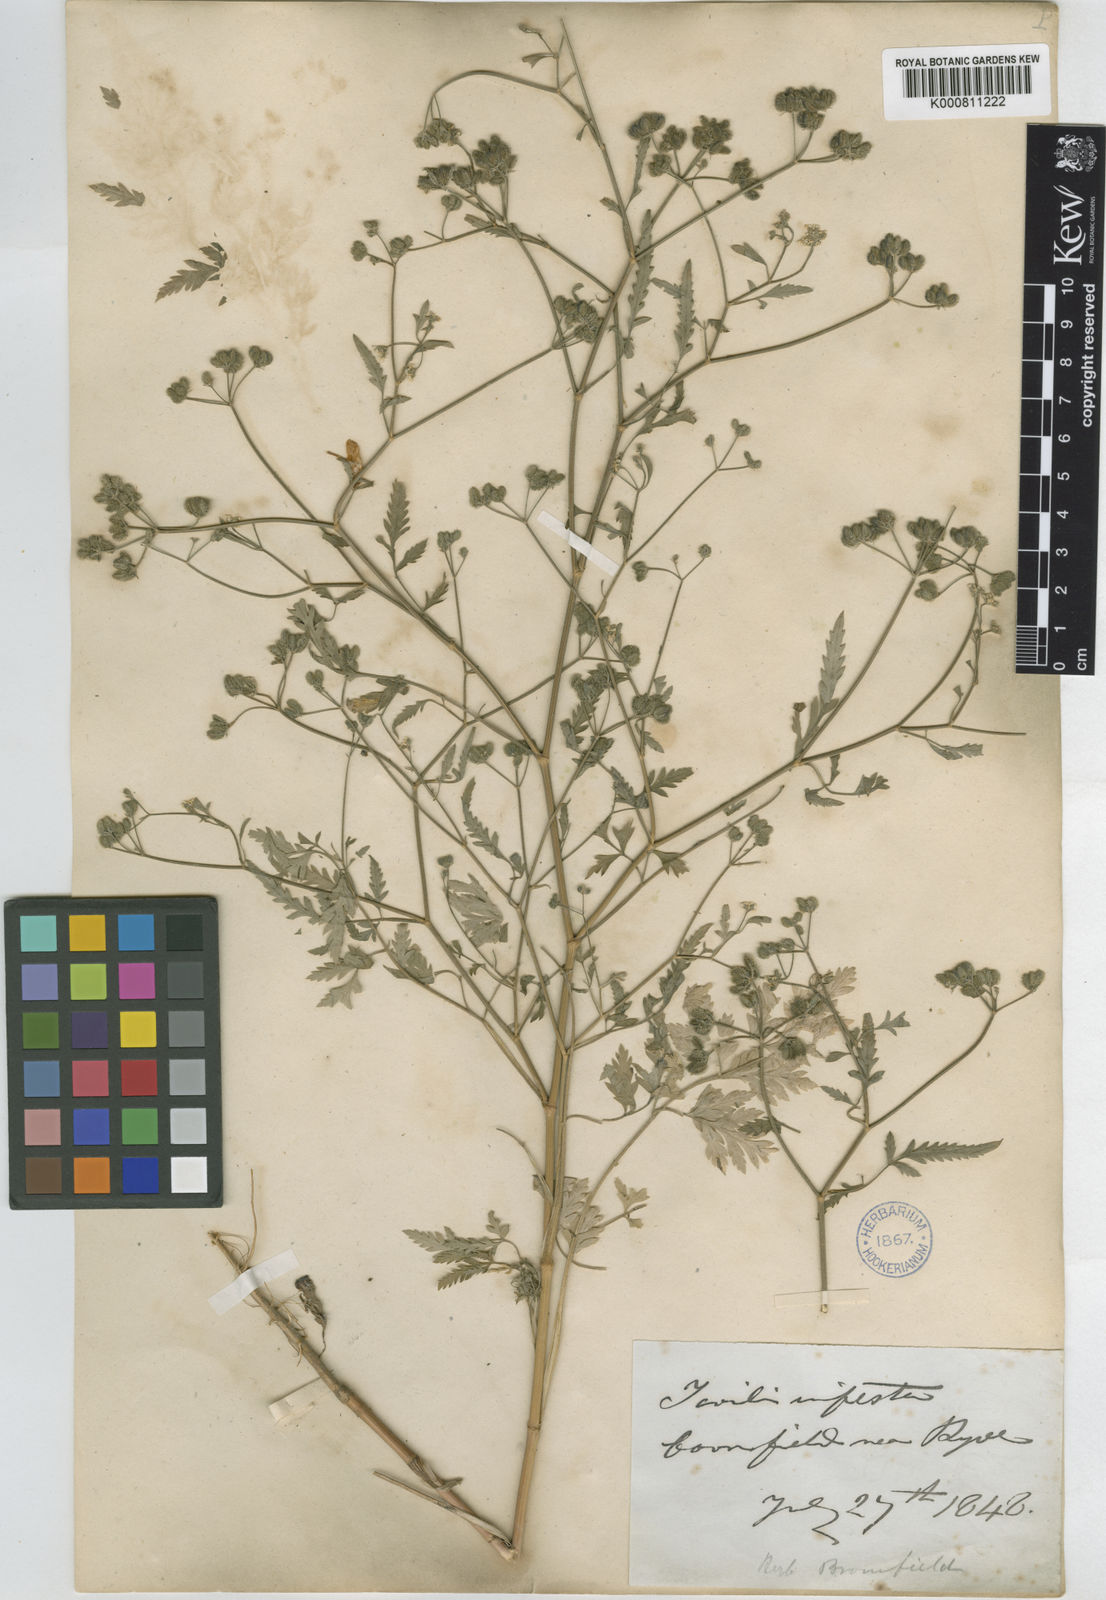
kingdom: Plantae
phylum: Tracheophyta
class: Magnoliopsida
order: Apiales
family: Apiaceae
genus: Torilis
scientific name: Torilis arvensis
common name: Spreading hedge-parsley
